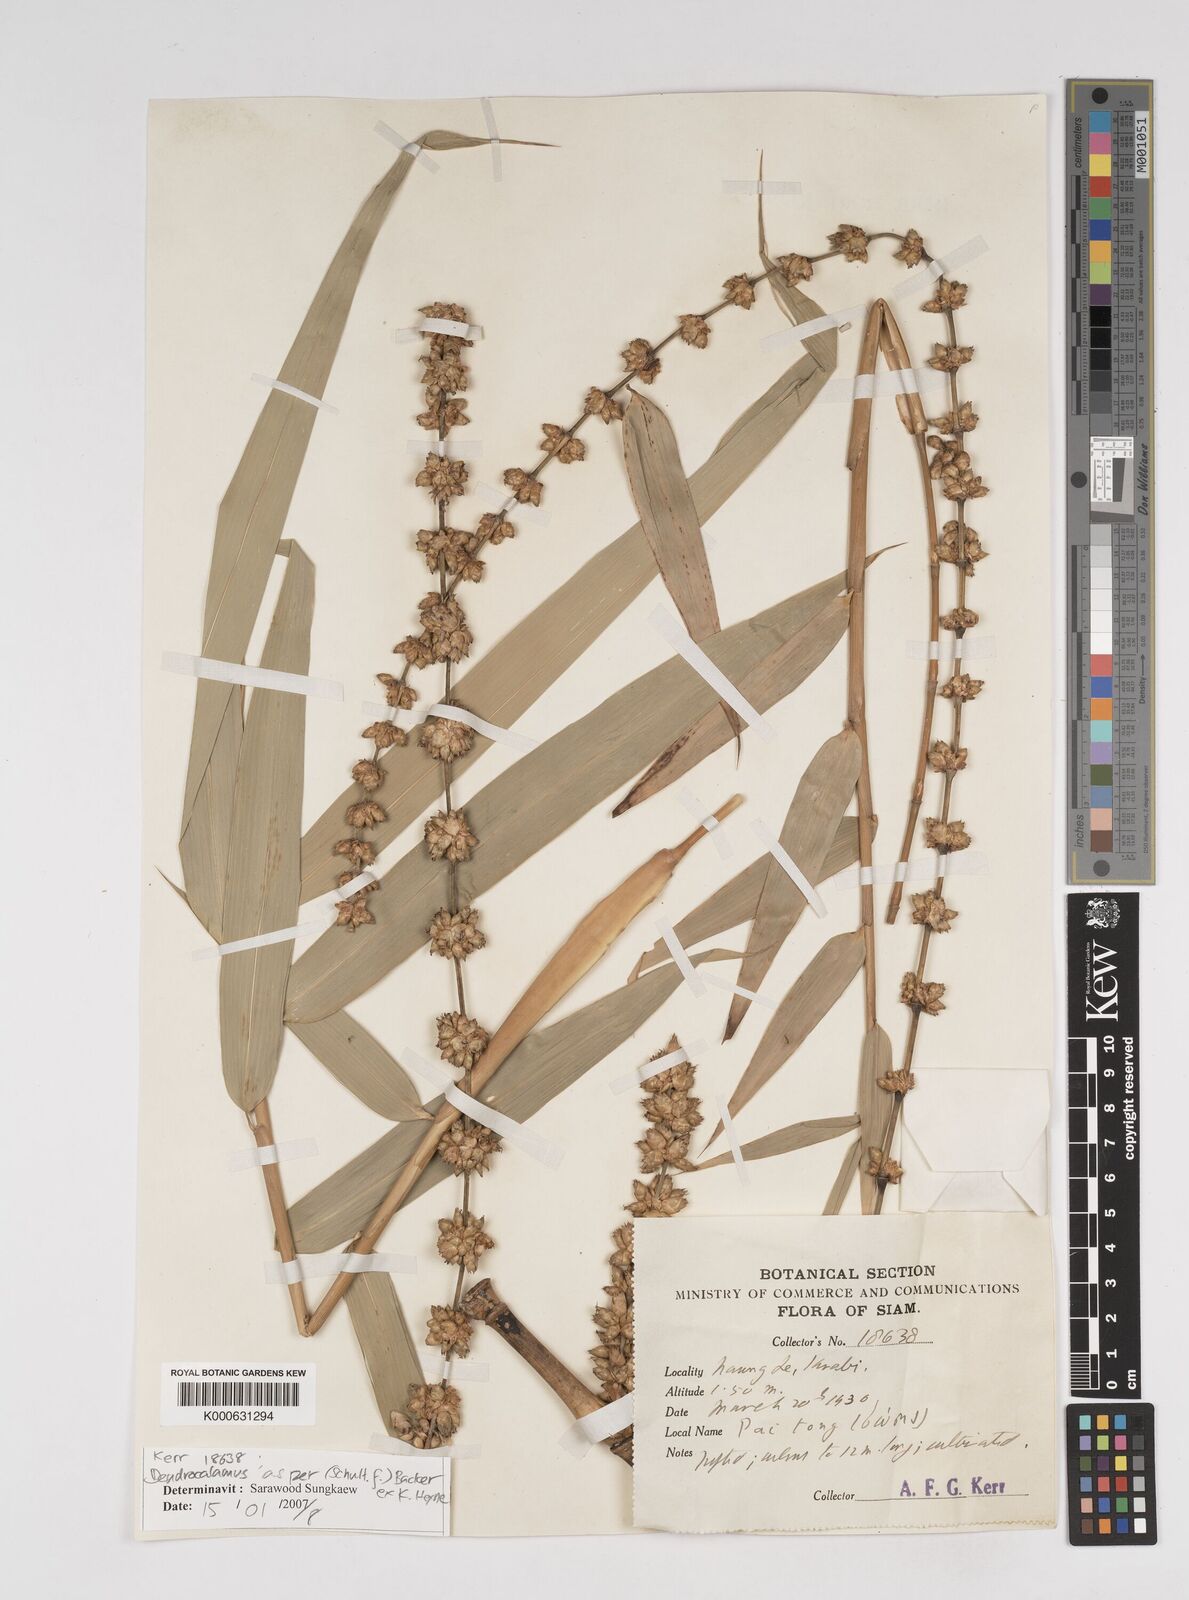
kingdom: Plantae
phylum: Tracheophyta
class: Liliopsida
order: Poales
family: Poaceae
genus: Dendrocalamus
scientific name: Dendrocalamus
